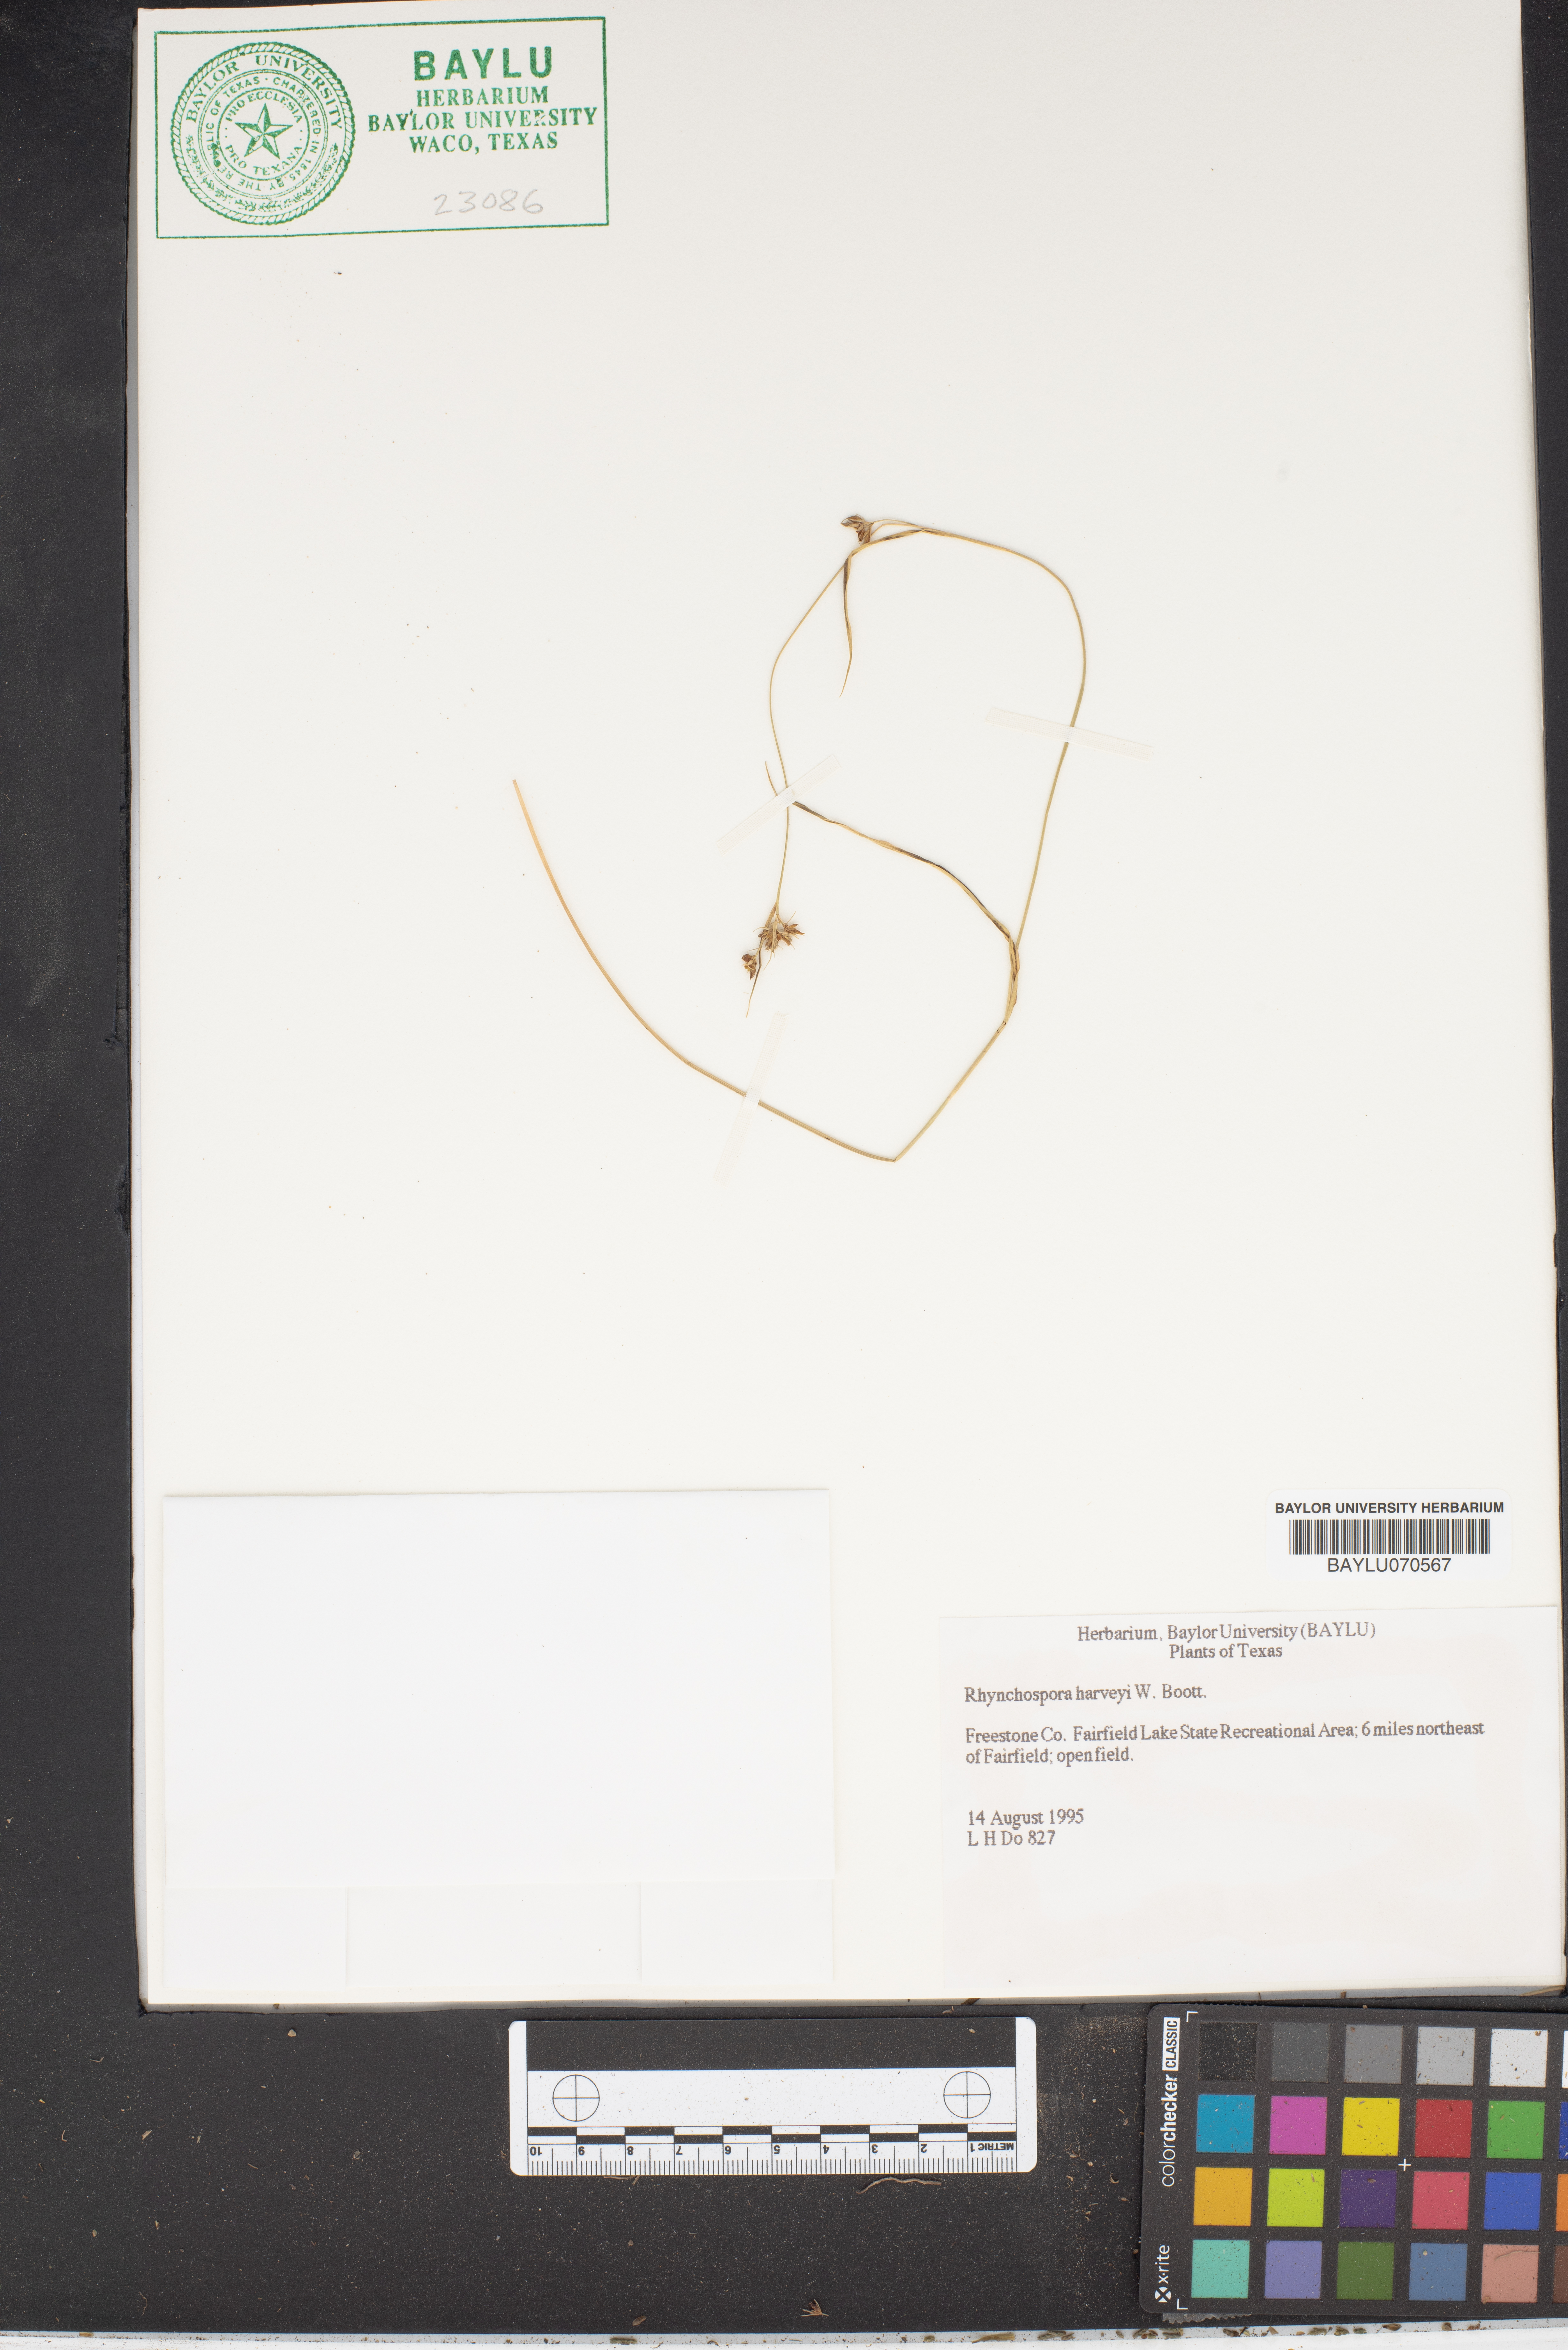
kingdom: Plantae
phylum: Tracheophyta
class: Liliopsida
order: Poales
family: Cyperaceae
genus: Rhynchospora
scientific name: Rhynchospora harveyi
